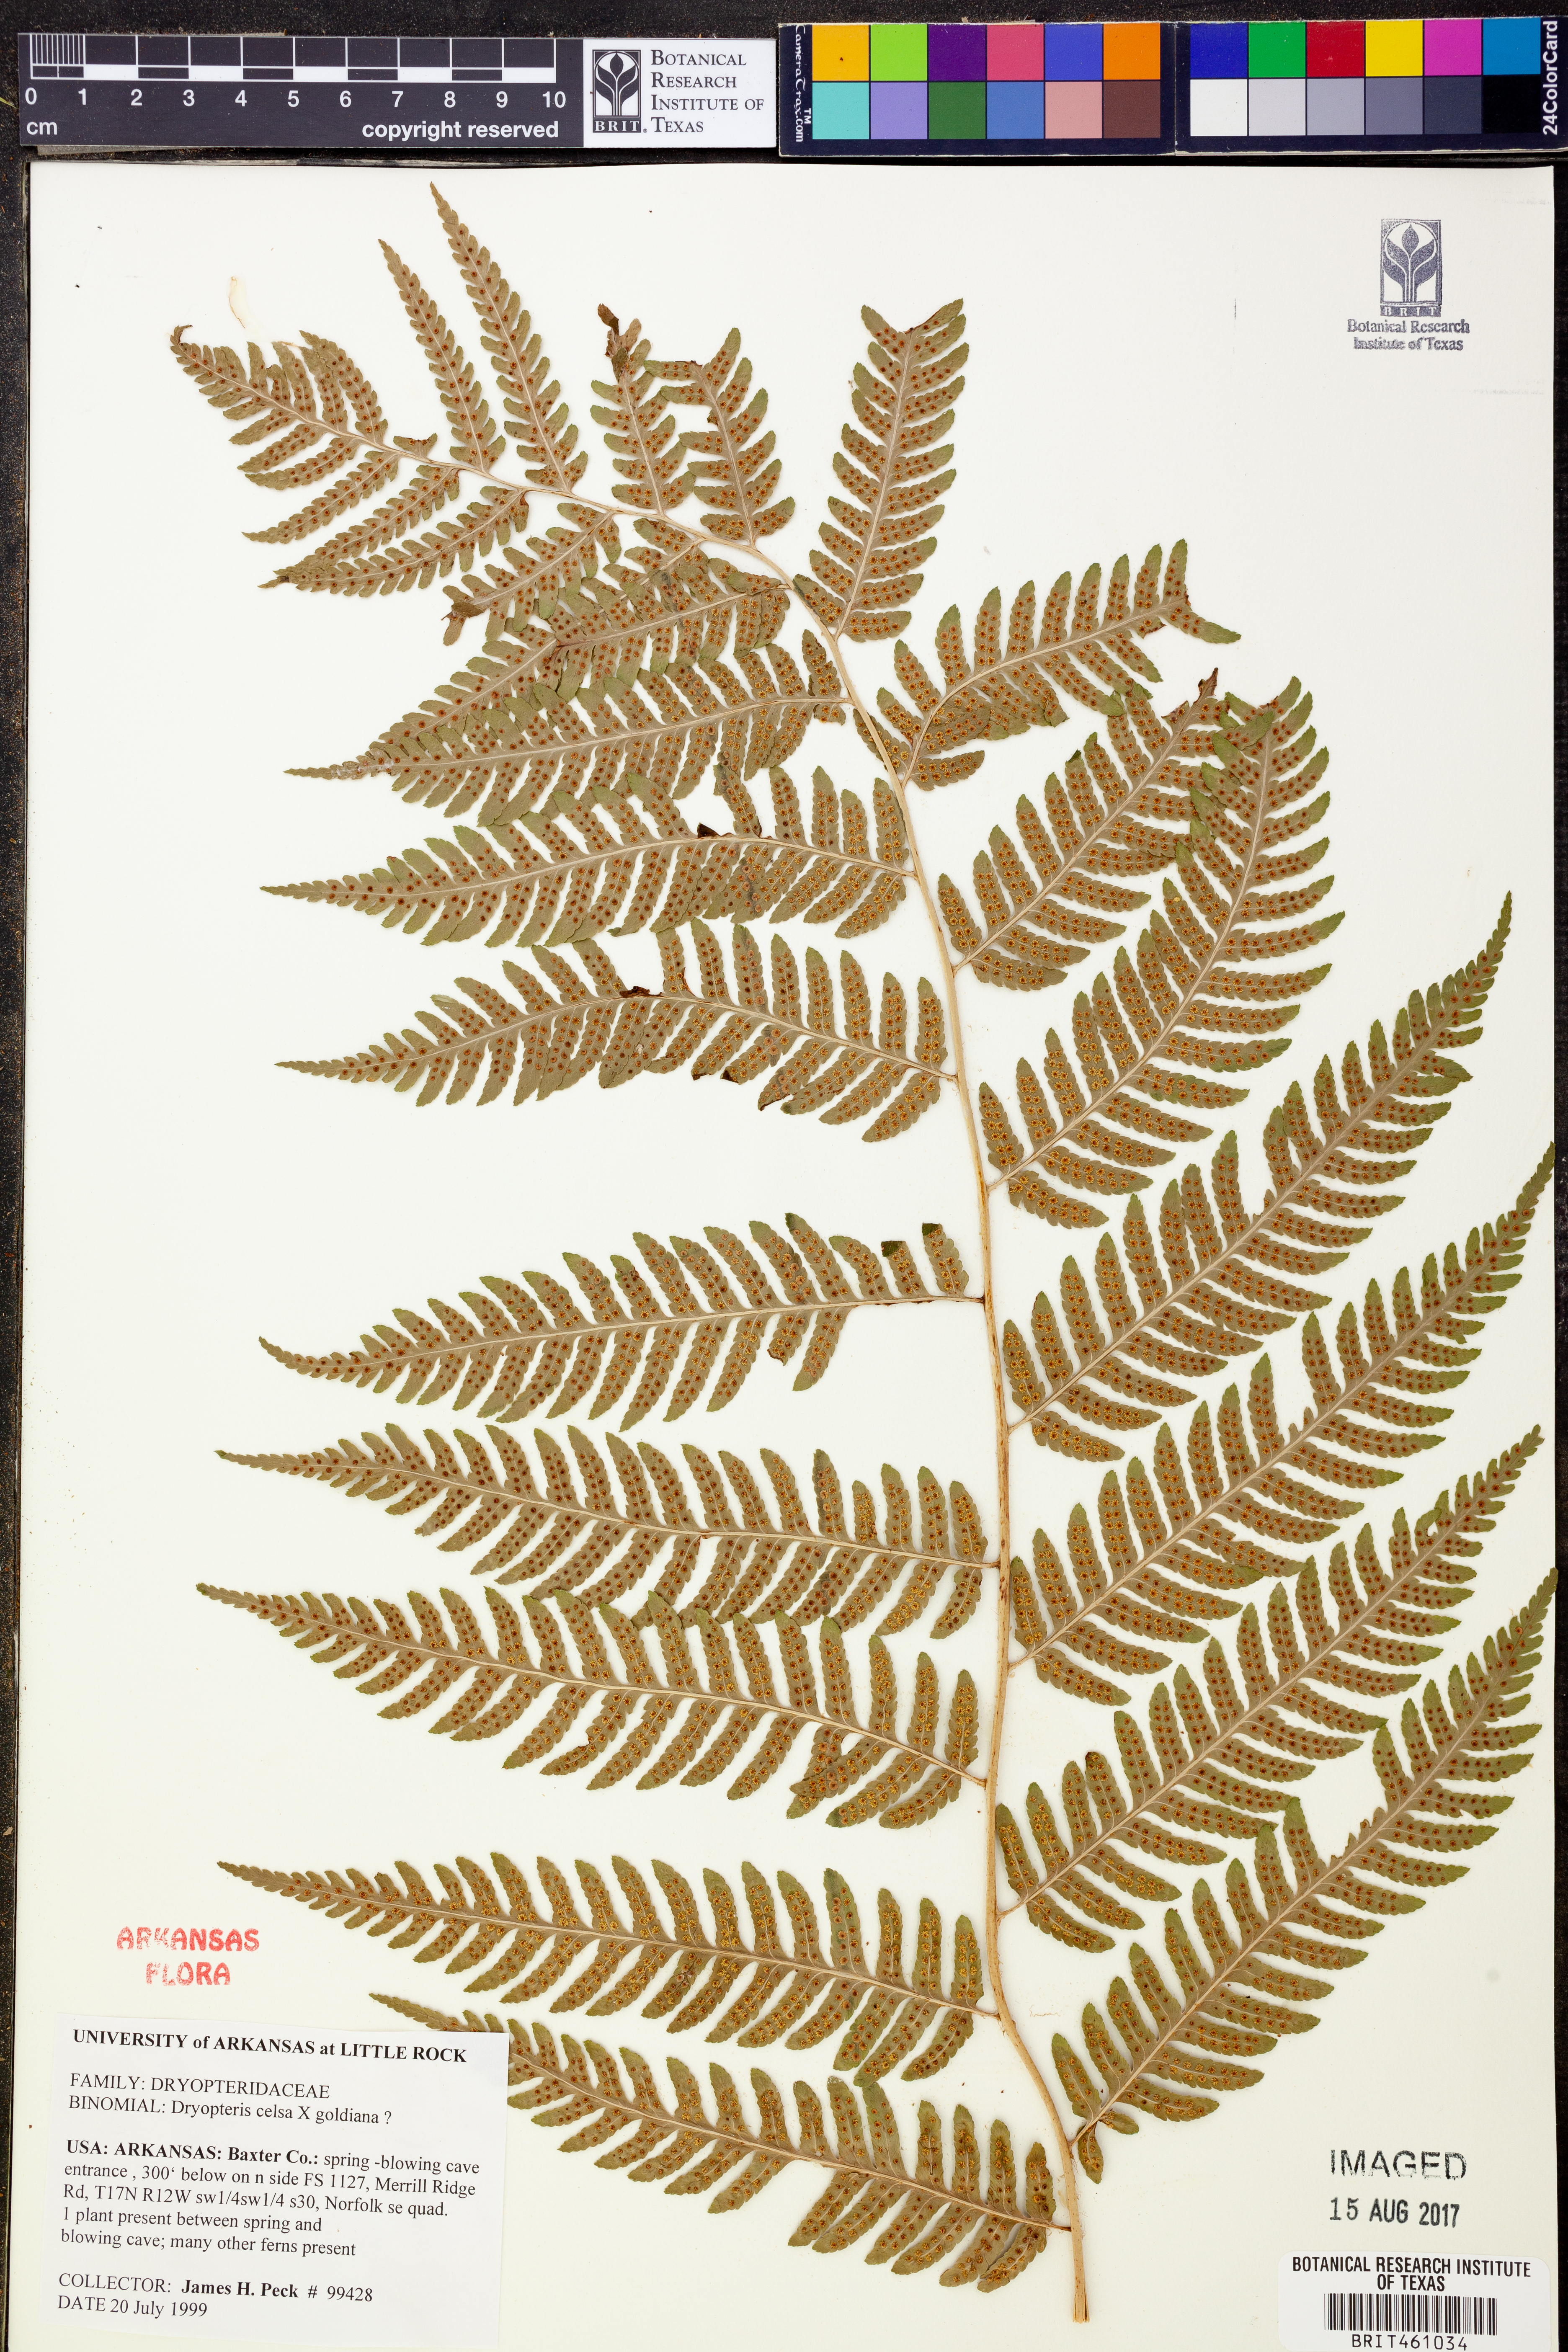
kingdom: Plantae
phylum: Tracheophyta
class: Polypodiopsida
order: Polypodiales
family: Dryopteridaceae
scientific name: Dryopteridaceae
